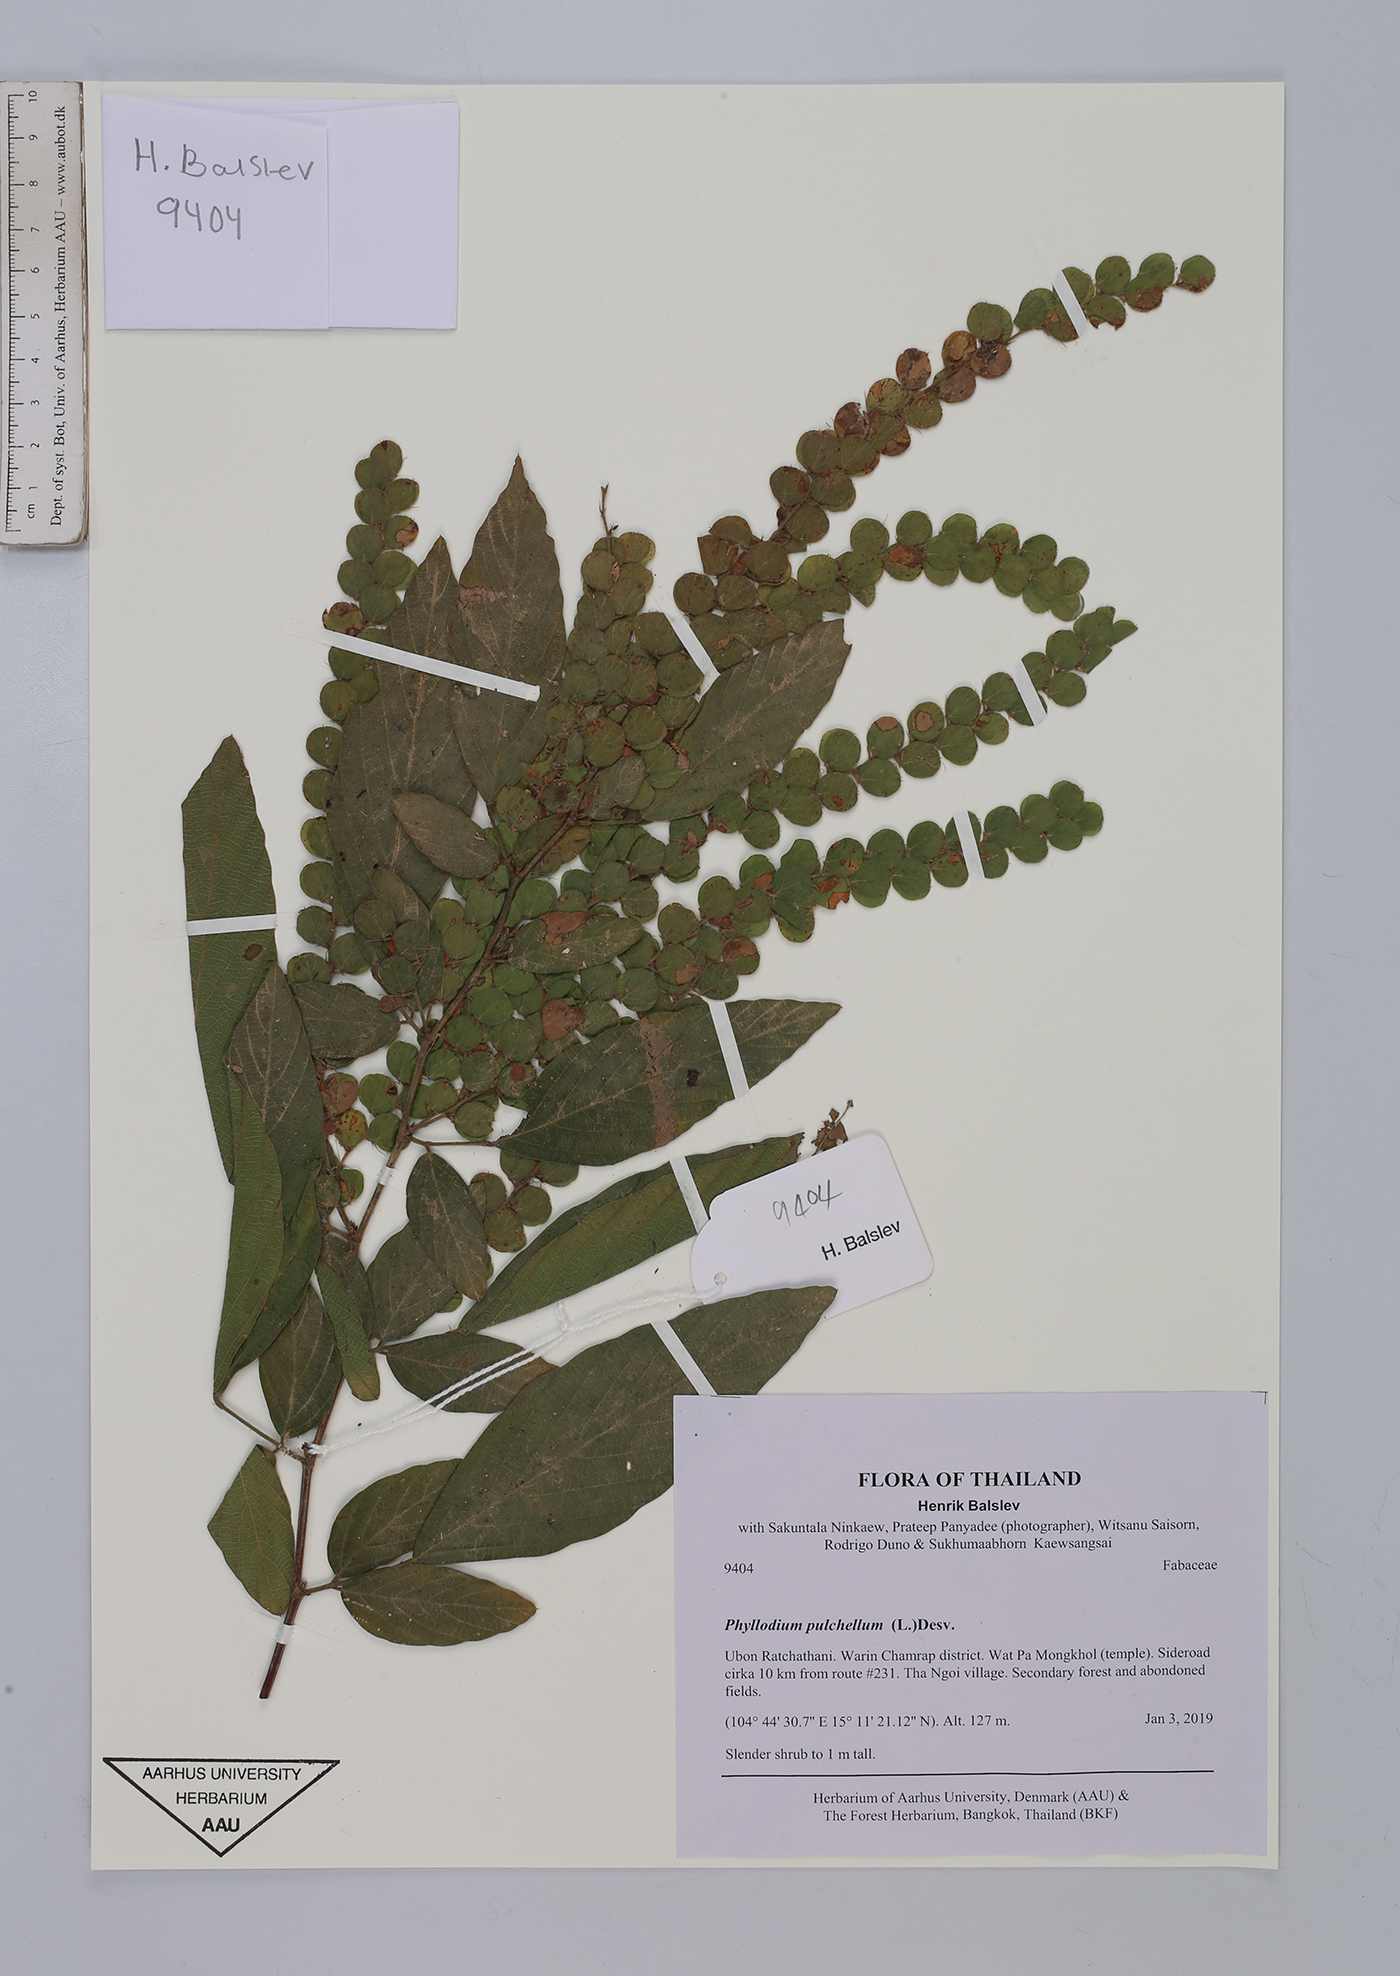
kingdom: Plantae
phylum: Tracheophyta
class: Magnoliopsida
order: Fabales
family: Fabaceae
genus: Phyllodium
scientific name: Phyllodium pulchellum
